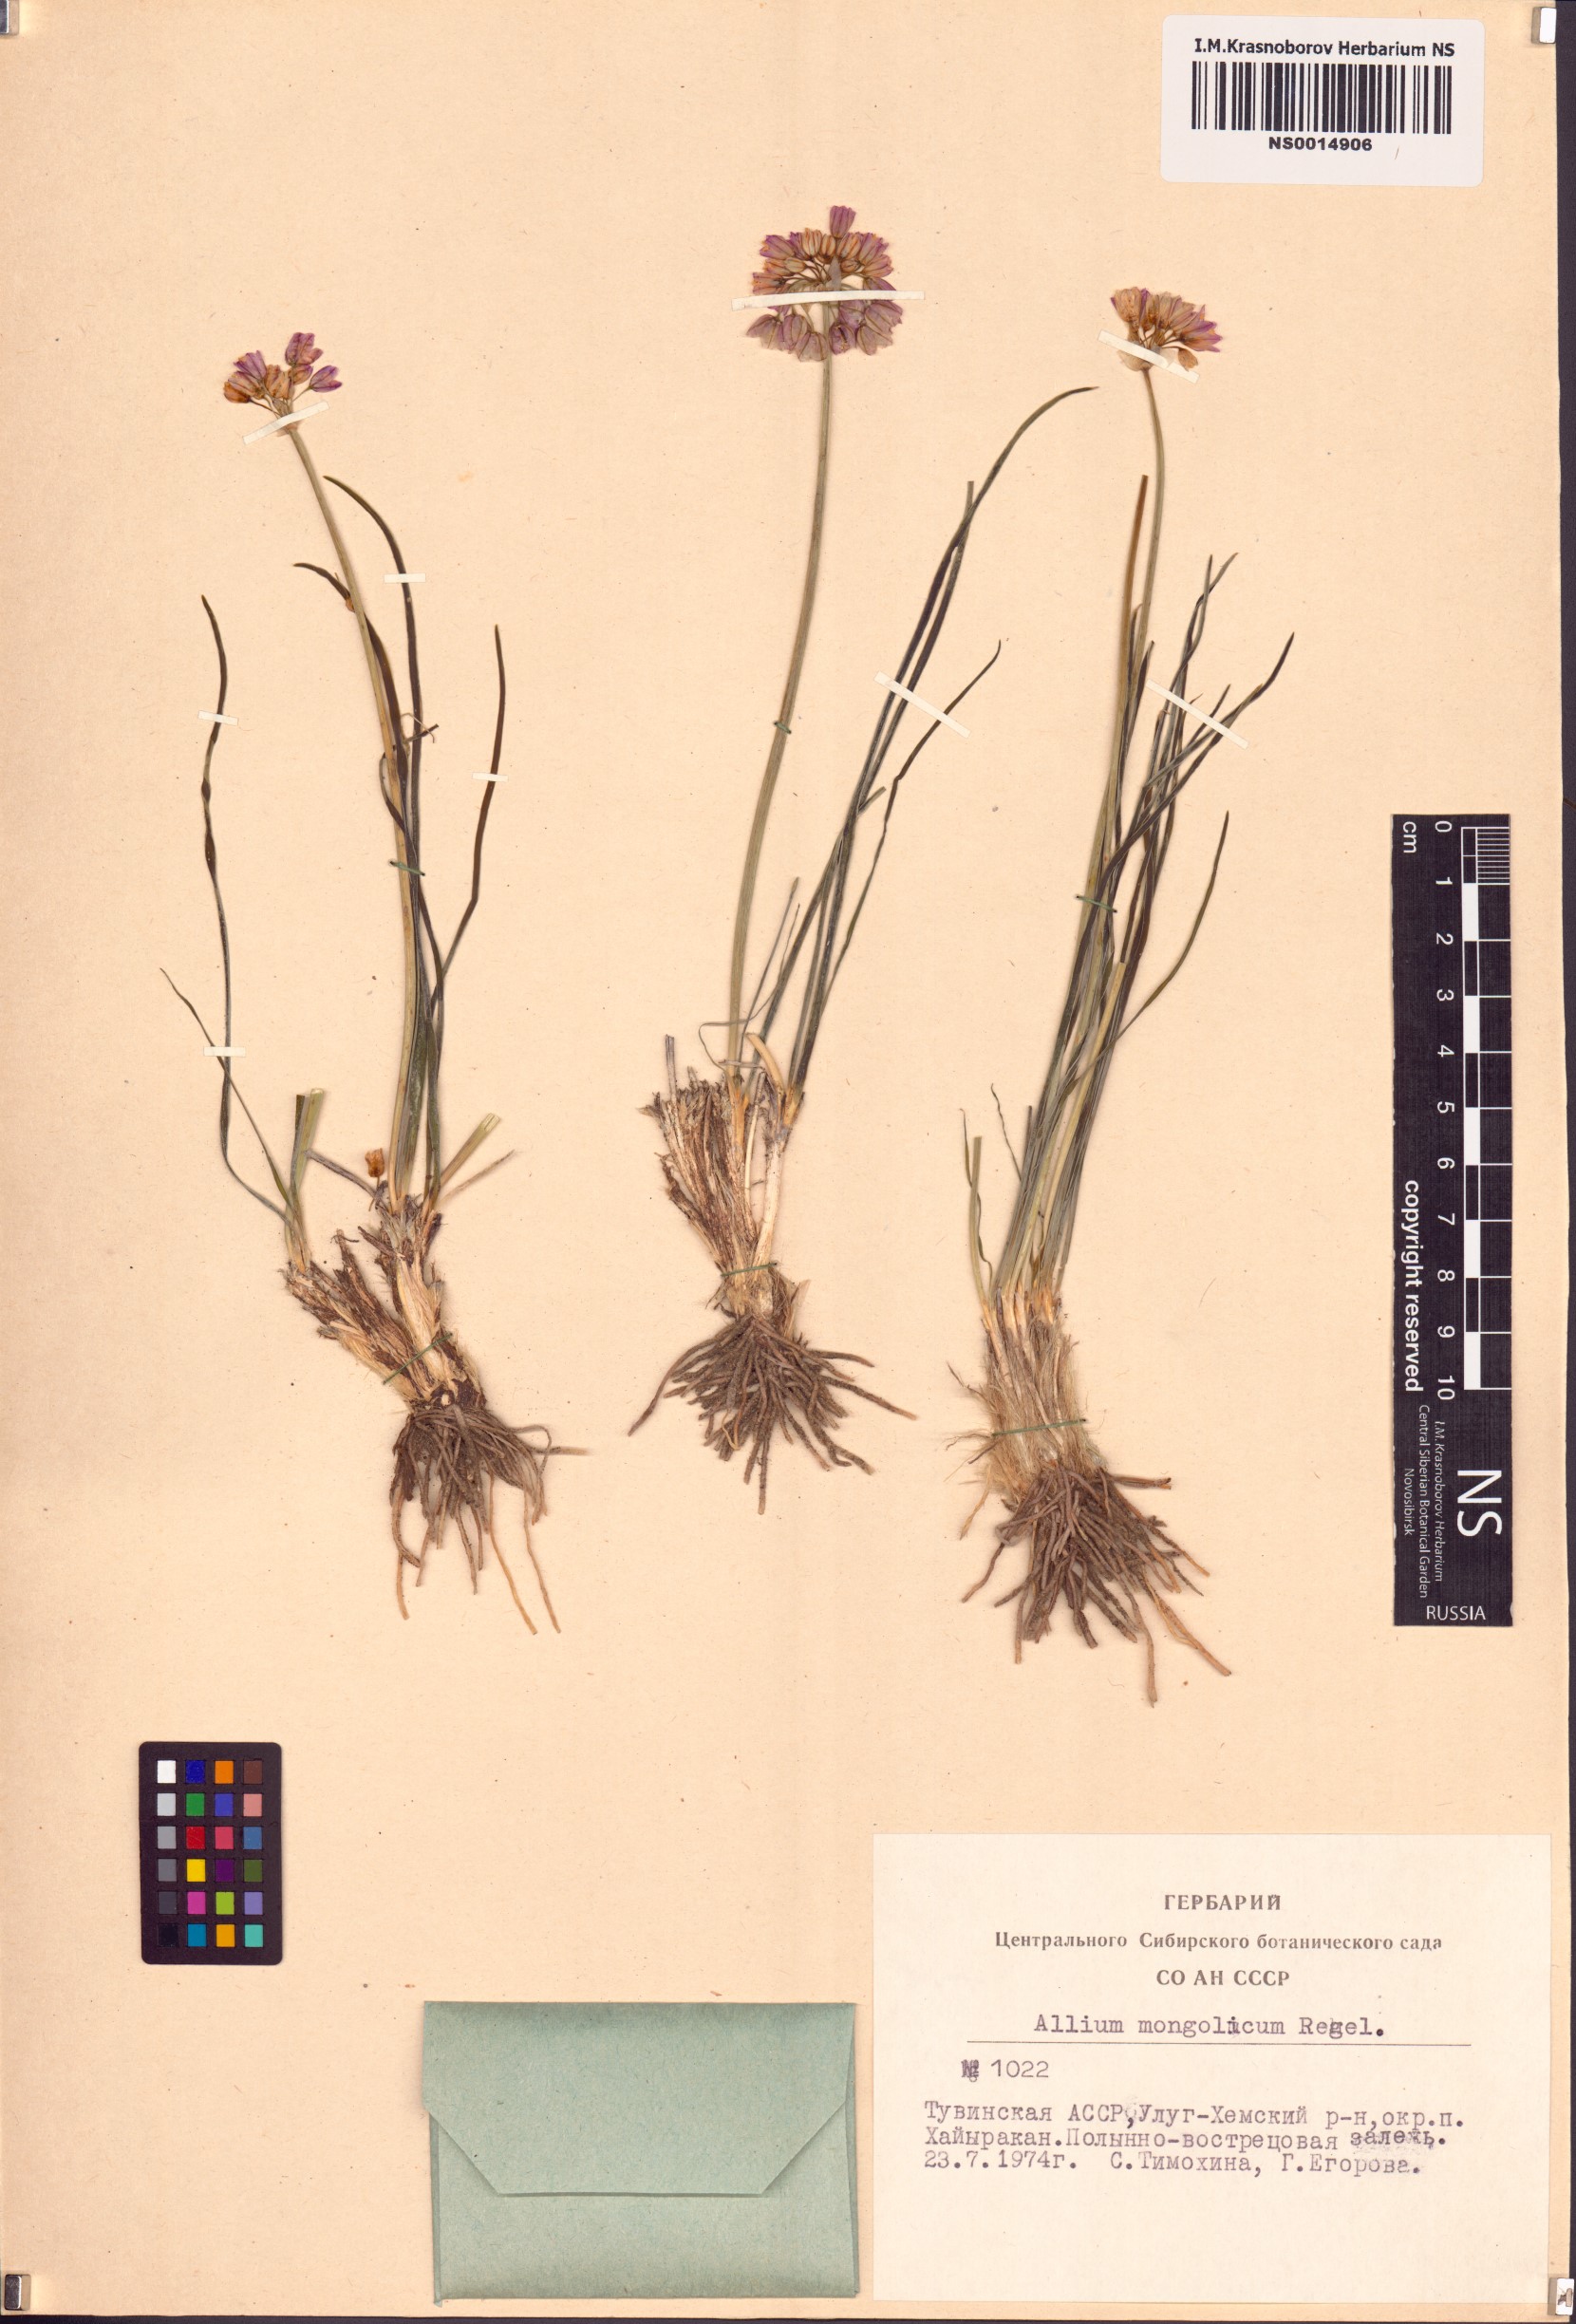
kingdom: Plantae
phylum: Tracheophyta
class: Liliopsida
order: Asparagales
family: Amaryllidaceae
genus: Allium
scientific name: Allium mongolicum
